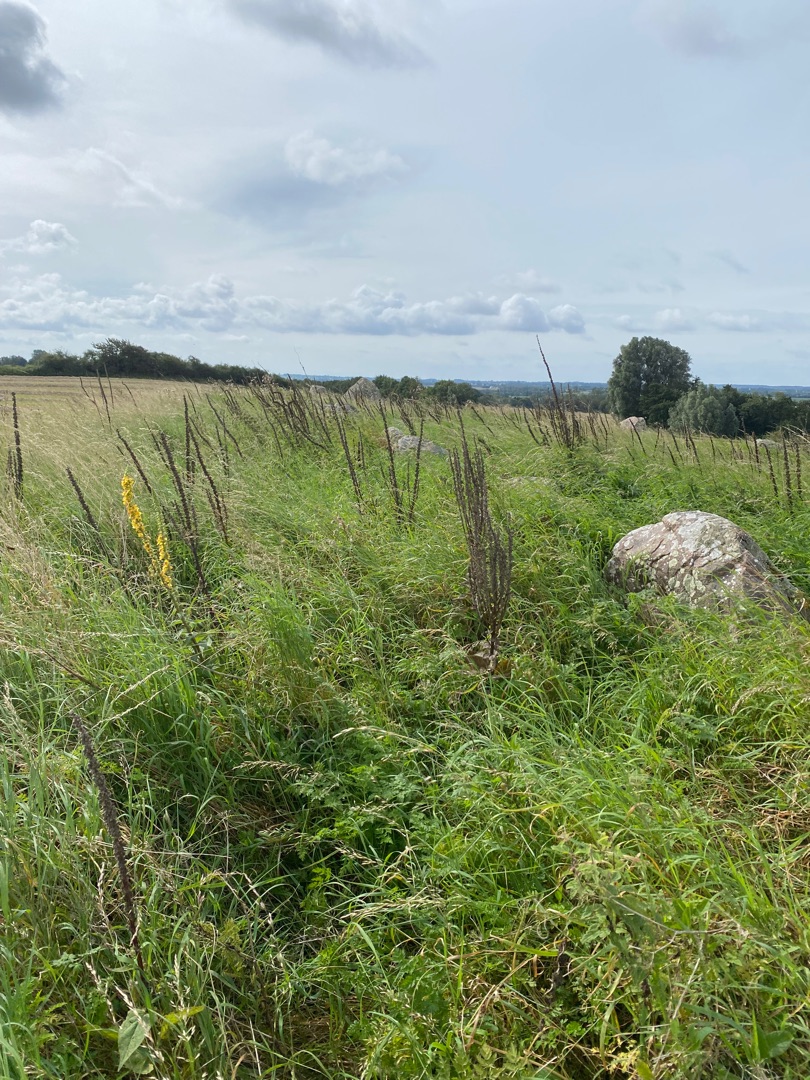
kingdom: Plantae
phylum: Tracheophyta
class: Magnoliopsida
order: Lamiales
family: Scrophulariaceae
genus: Verbascum
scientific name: Verbascum nigrum
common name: Mørk kongelys
